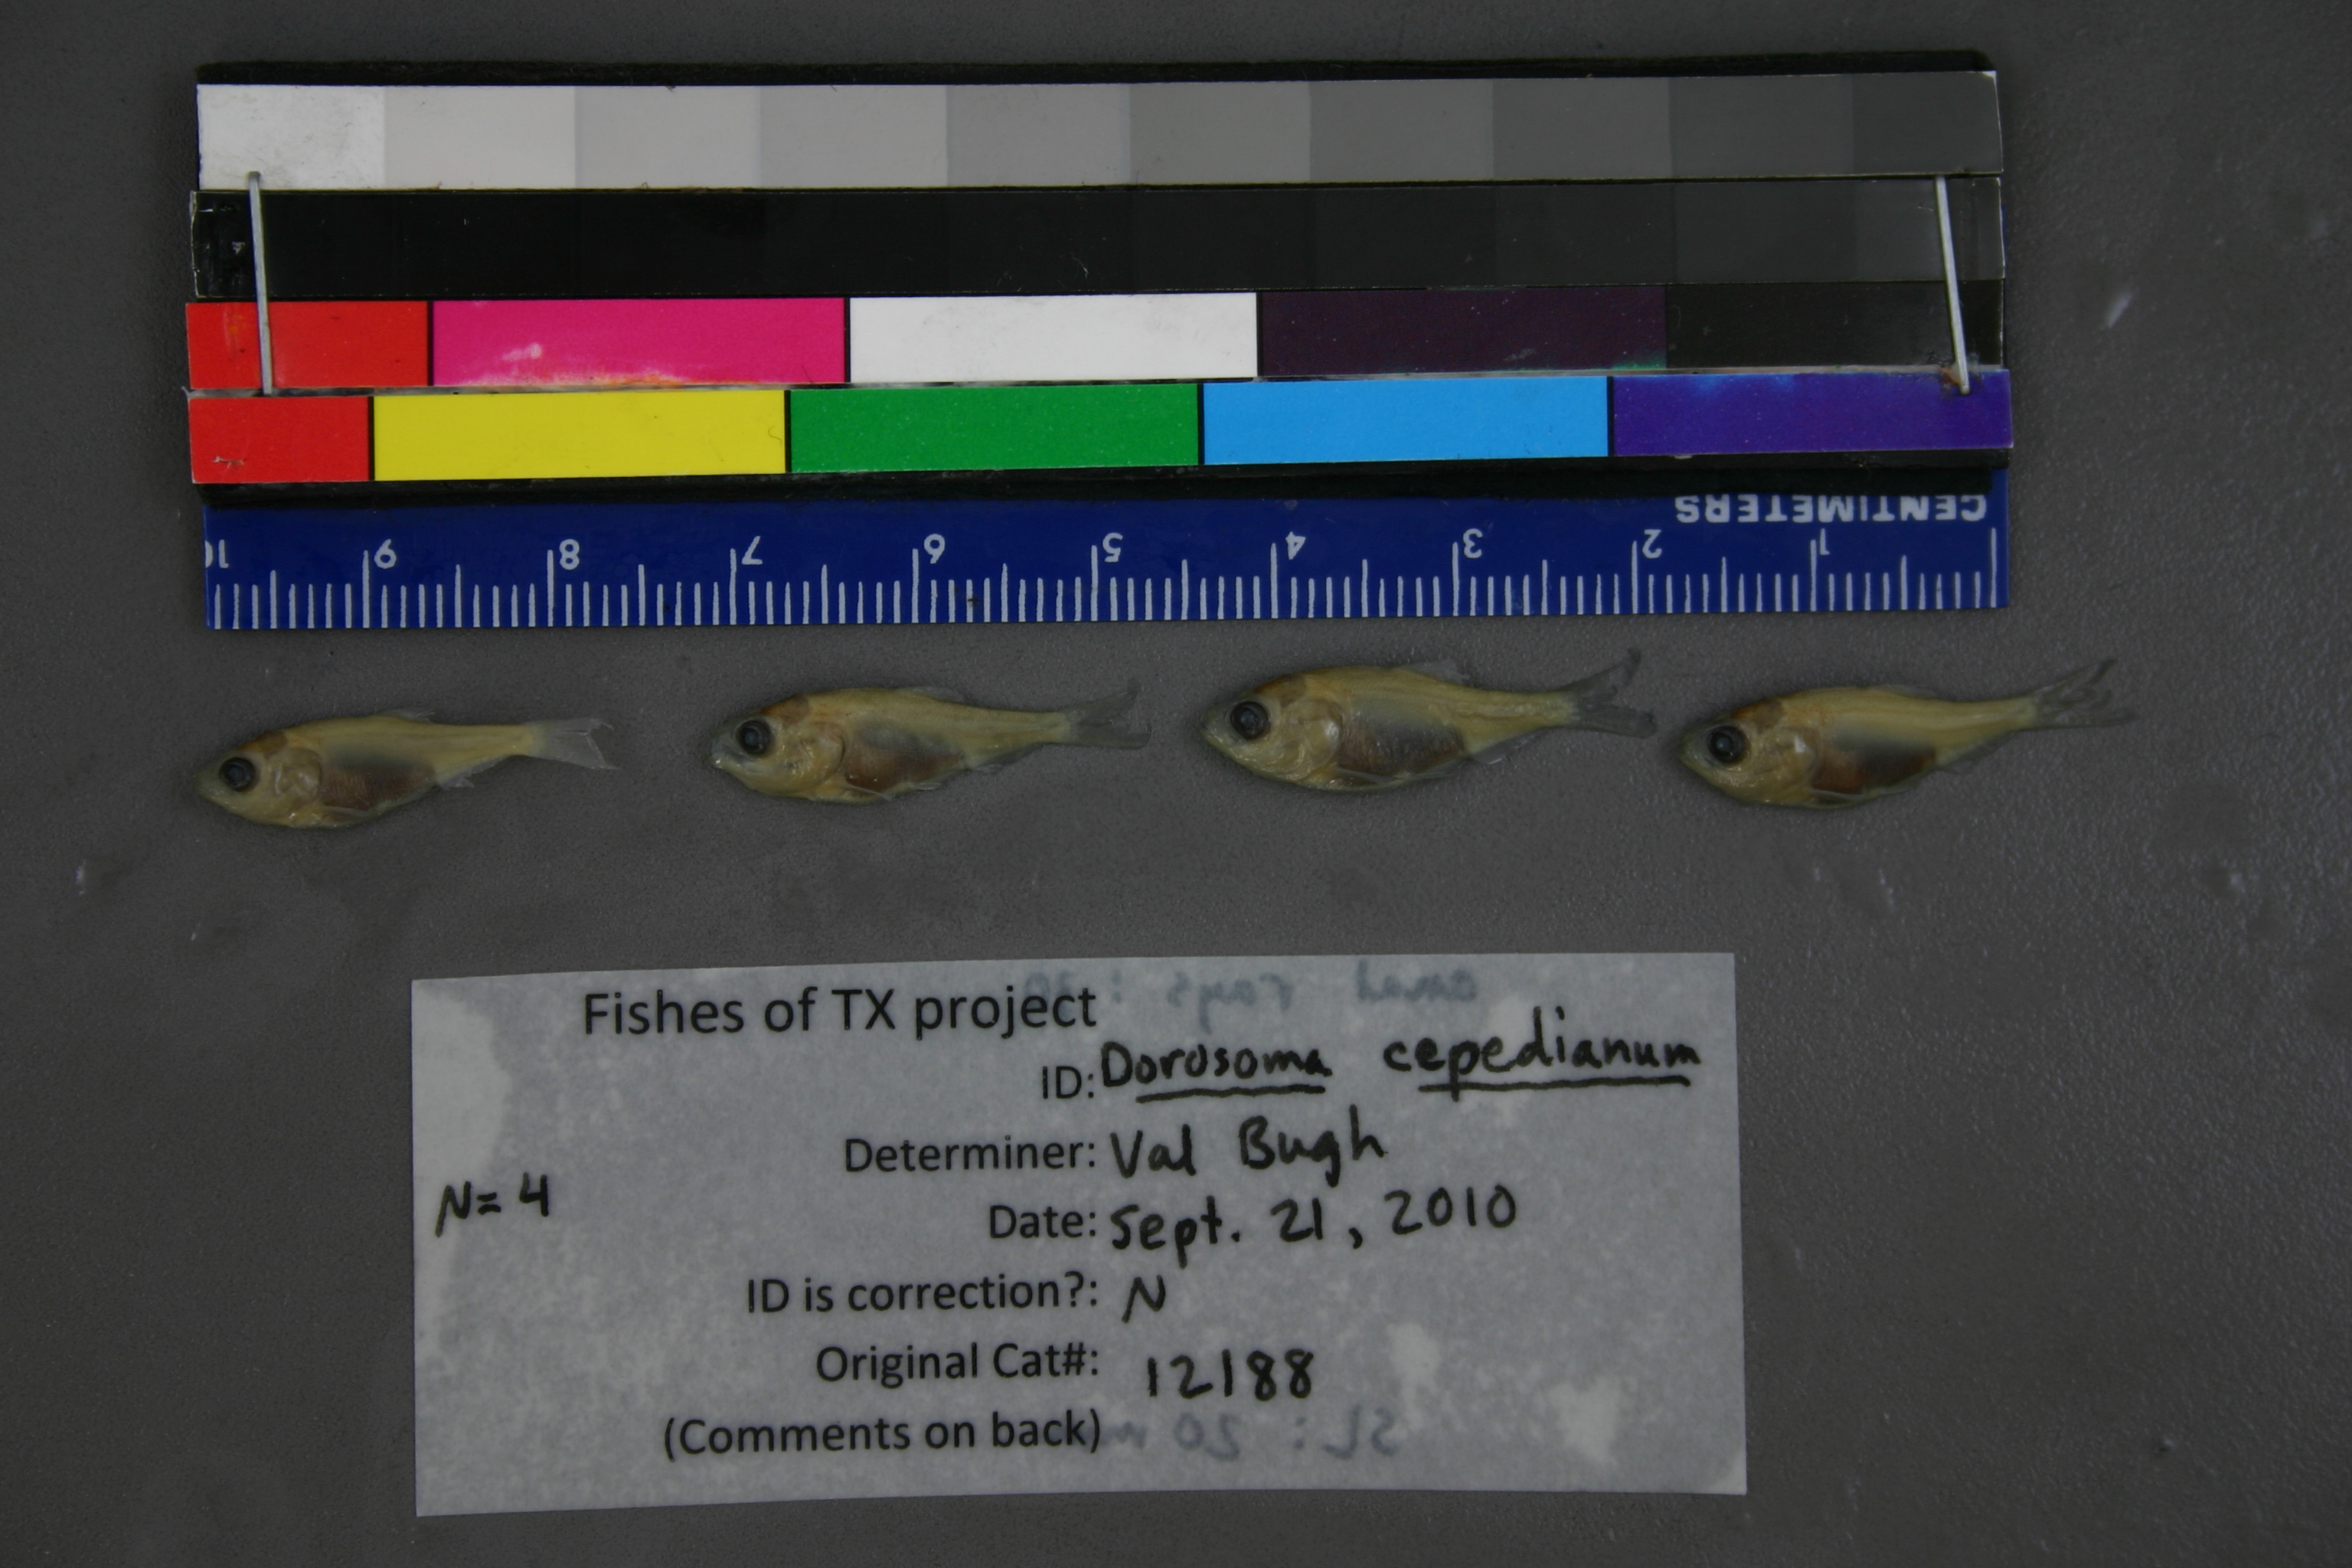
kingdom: Animalia
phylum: Chordata
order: Clupeiformes
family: Clupeidae
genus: Dorosoma
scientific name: Dorosoma cepedianum
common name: Gizzard shad
